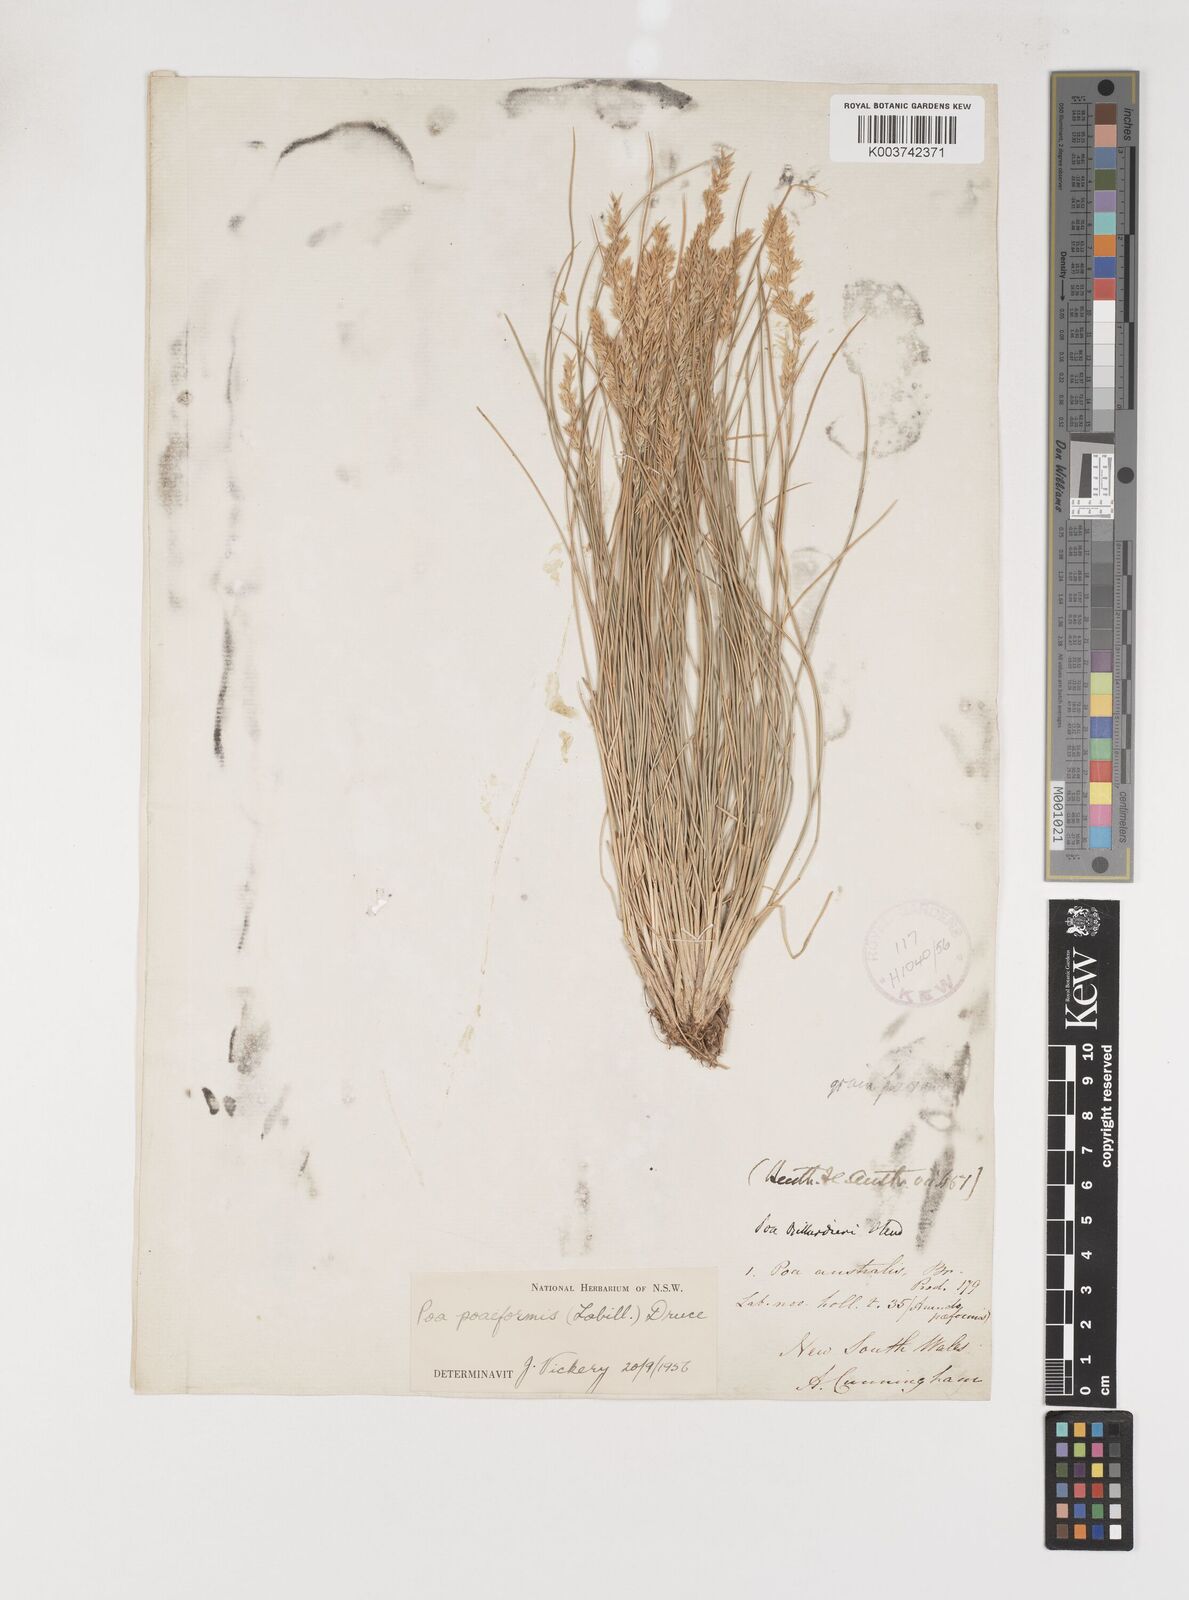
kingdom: Plantae
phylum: Tracheophyta
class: Liliopsida
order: Poales
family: Poaceae
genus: Poa
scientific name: Poa poiformis
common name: Tussock poa
